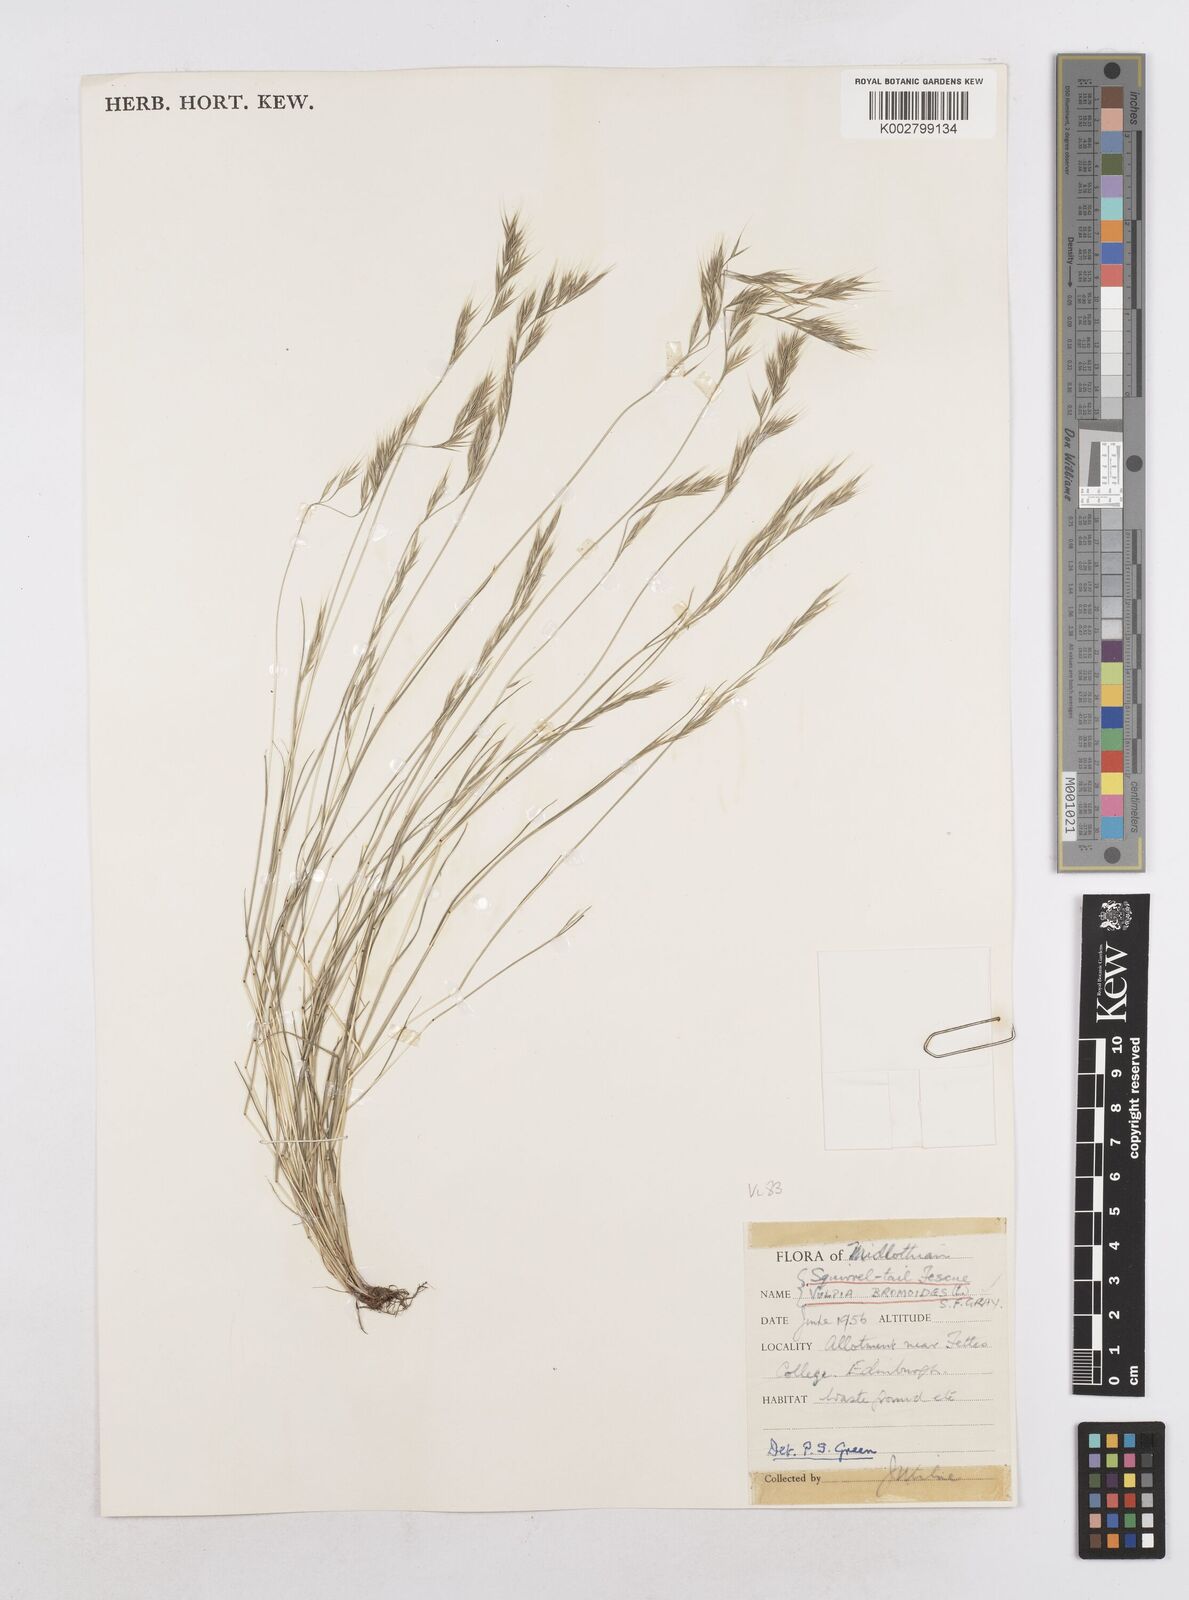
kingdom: Plantae
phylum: Tracheophyta
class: Liliopsida
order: Poales
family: Poaceae
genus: Festuca
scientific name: Festuca bromoides
